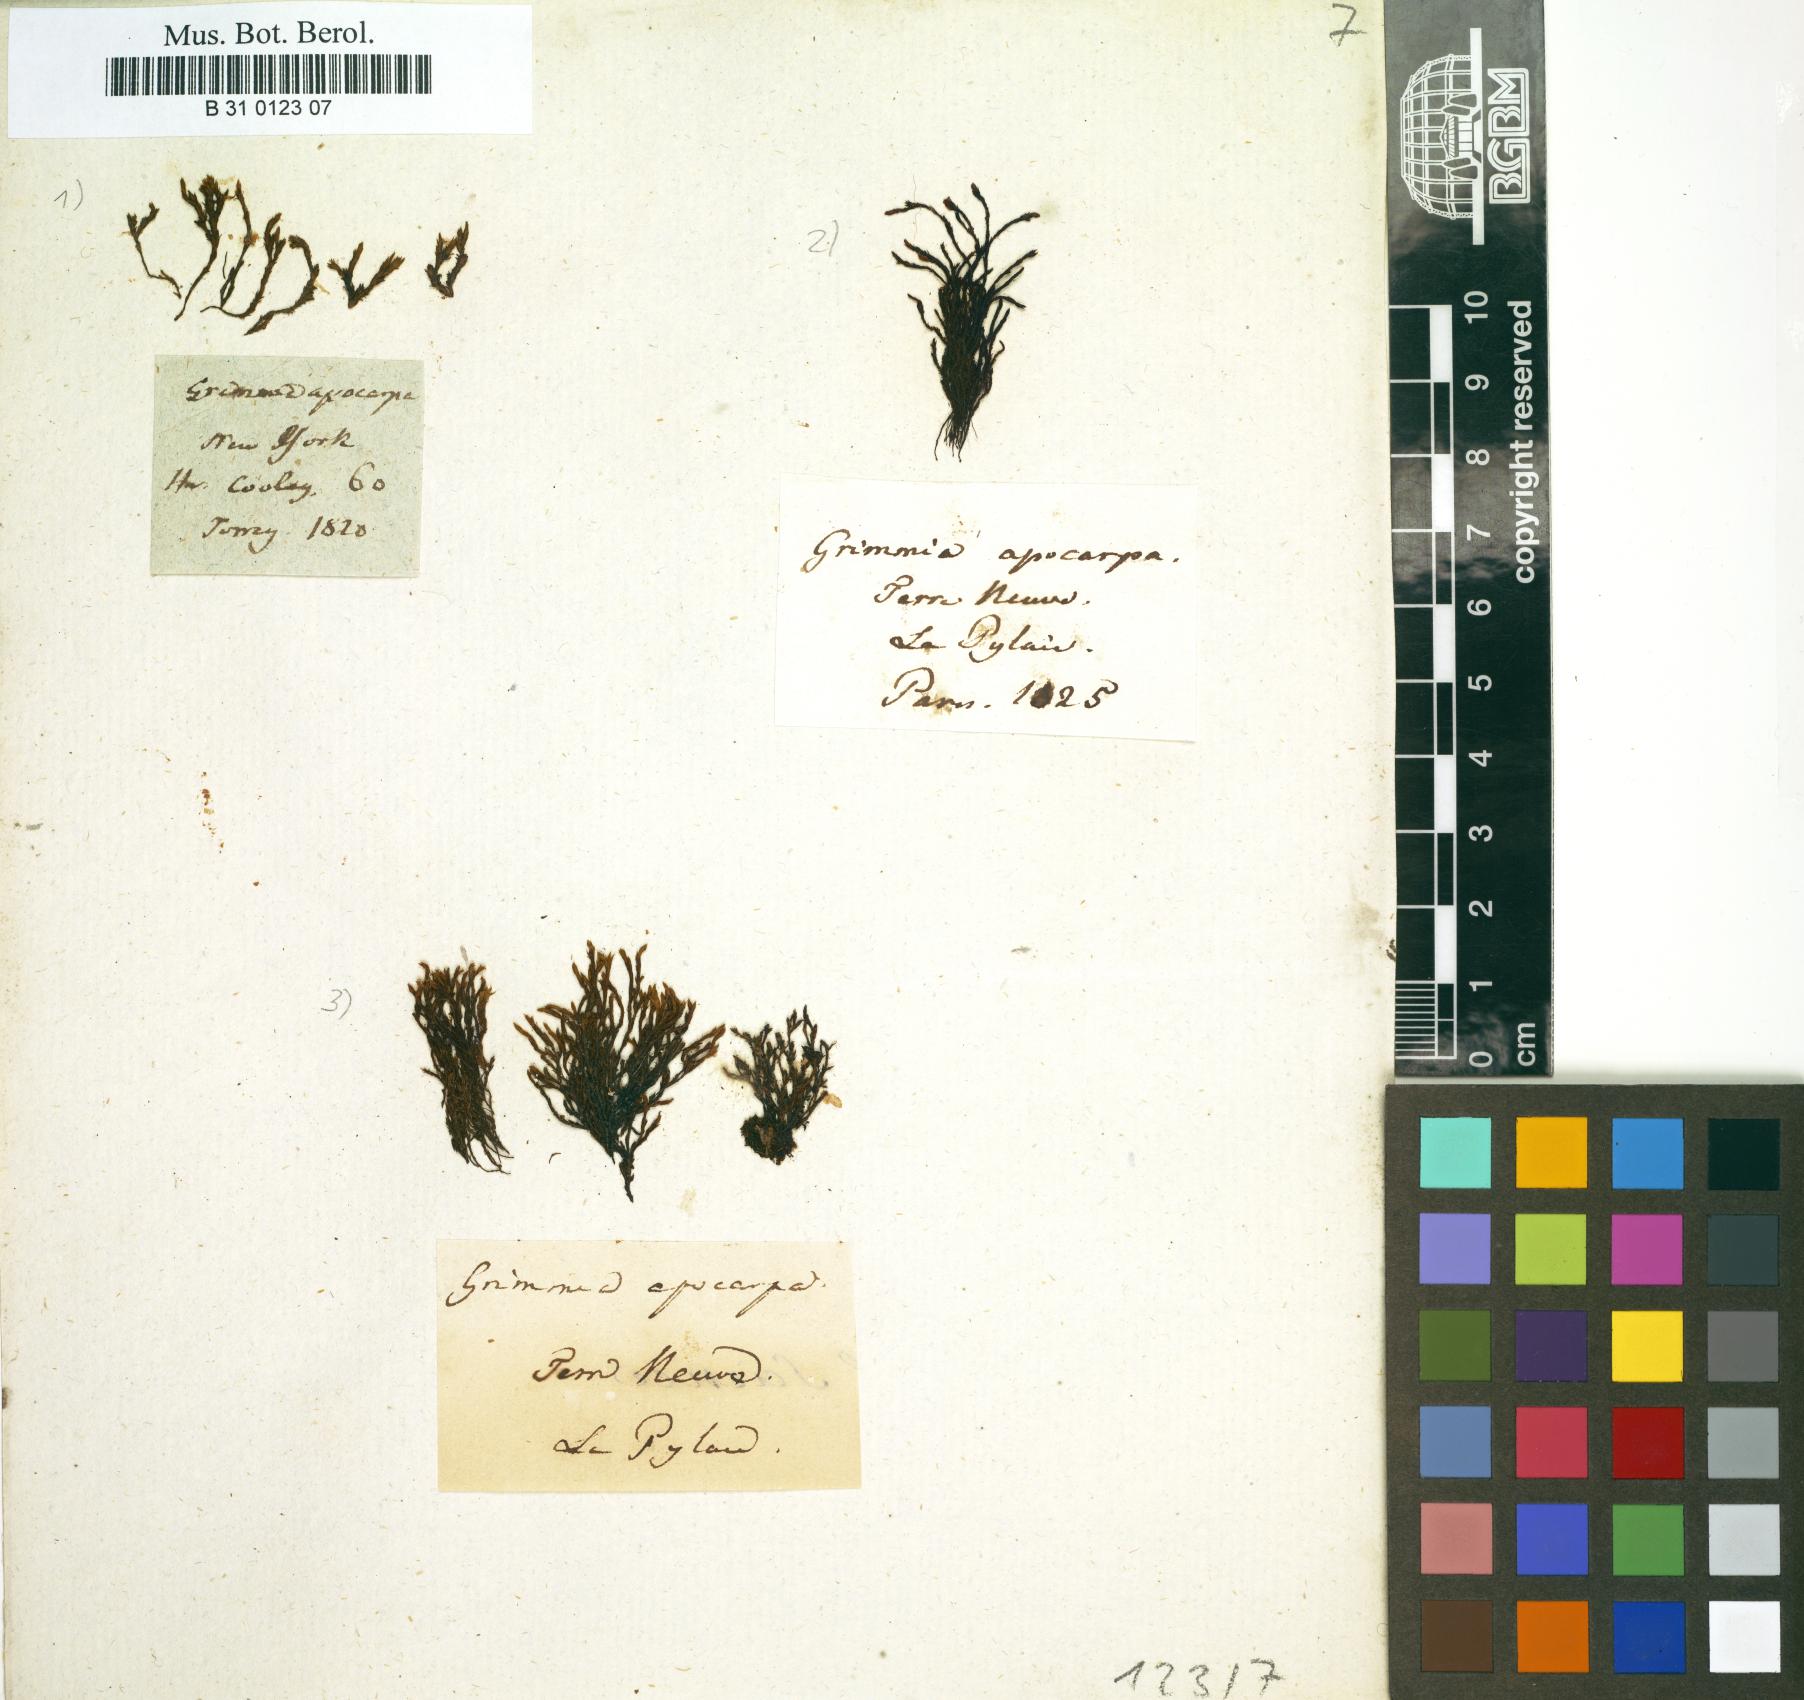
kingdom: Plantae
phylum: Bryophyta
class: Bryopsida
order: Grimmiales
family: Grimmiaceae
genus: Schistidium
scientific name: Schistidium apocarpum
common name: Radiate bloom moss
